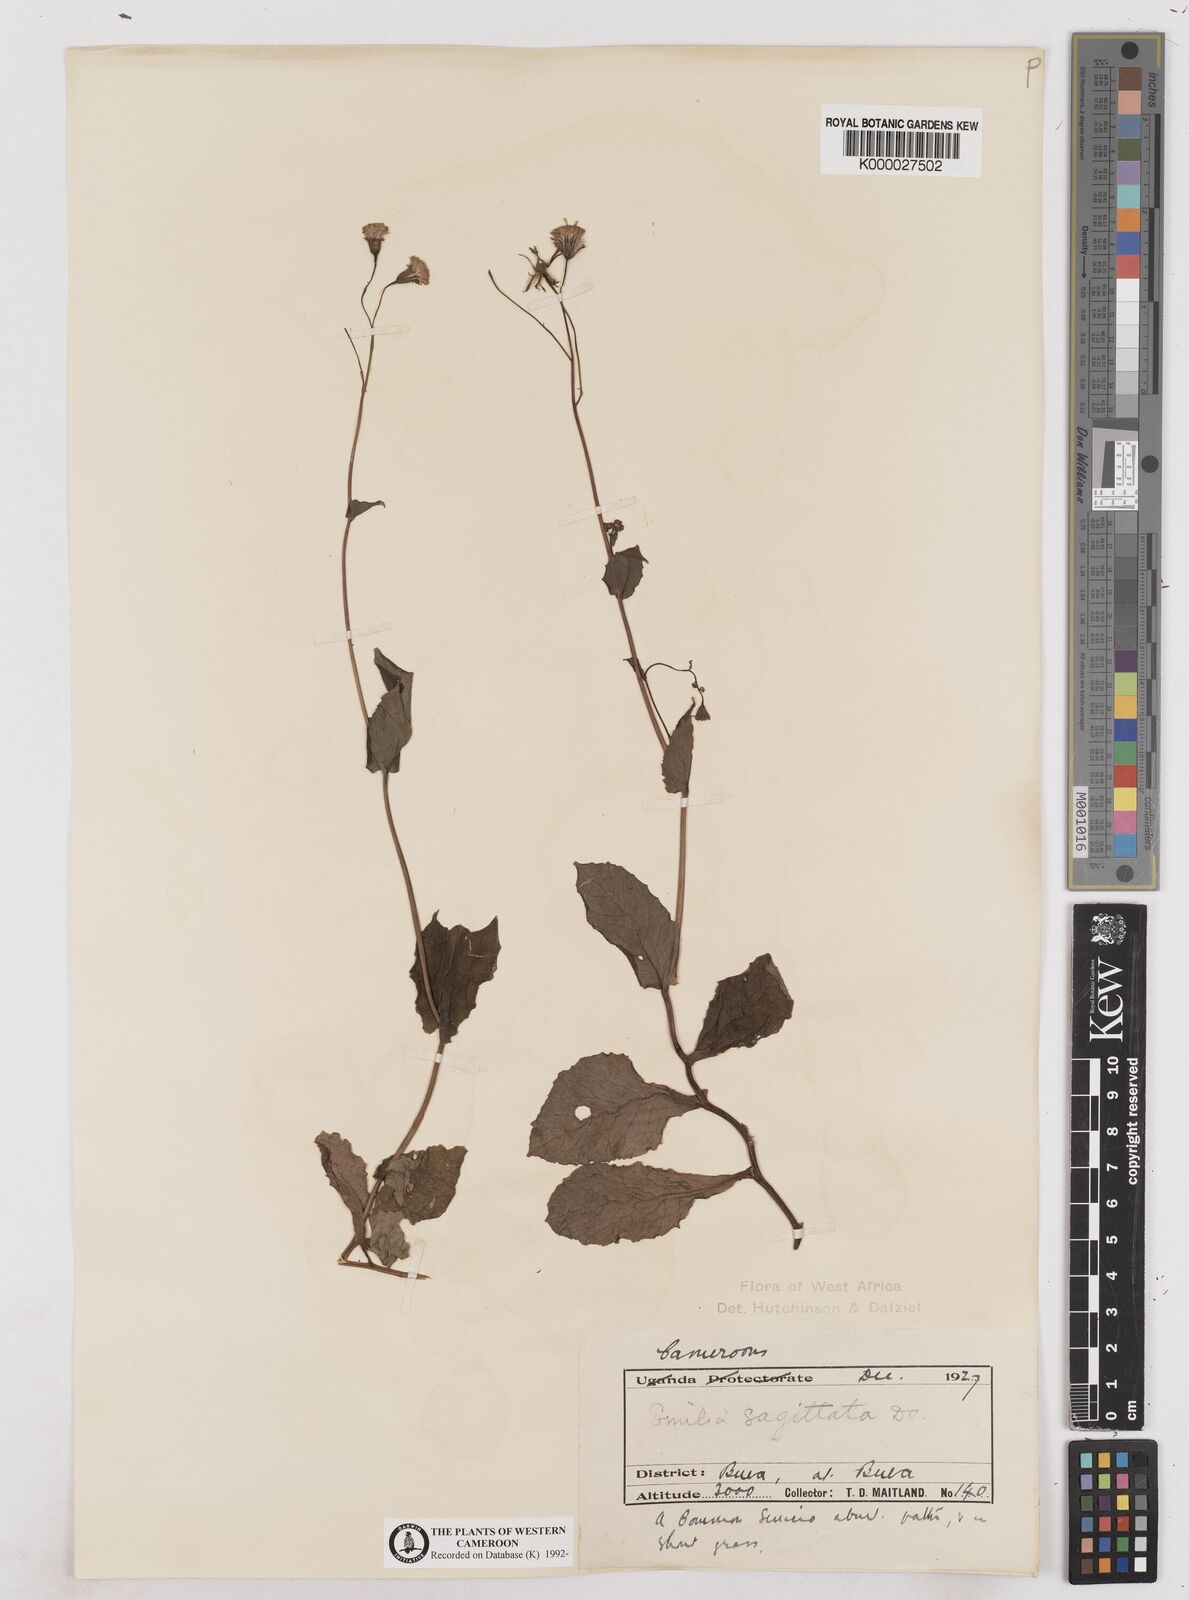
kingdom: Plantae
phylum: Tracheophyta
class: Magnoliopsida
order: Asterales
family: Asteraceae
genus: Emilia
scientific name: Emilia lisowskiana
